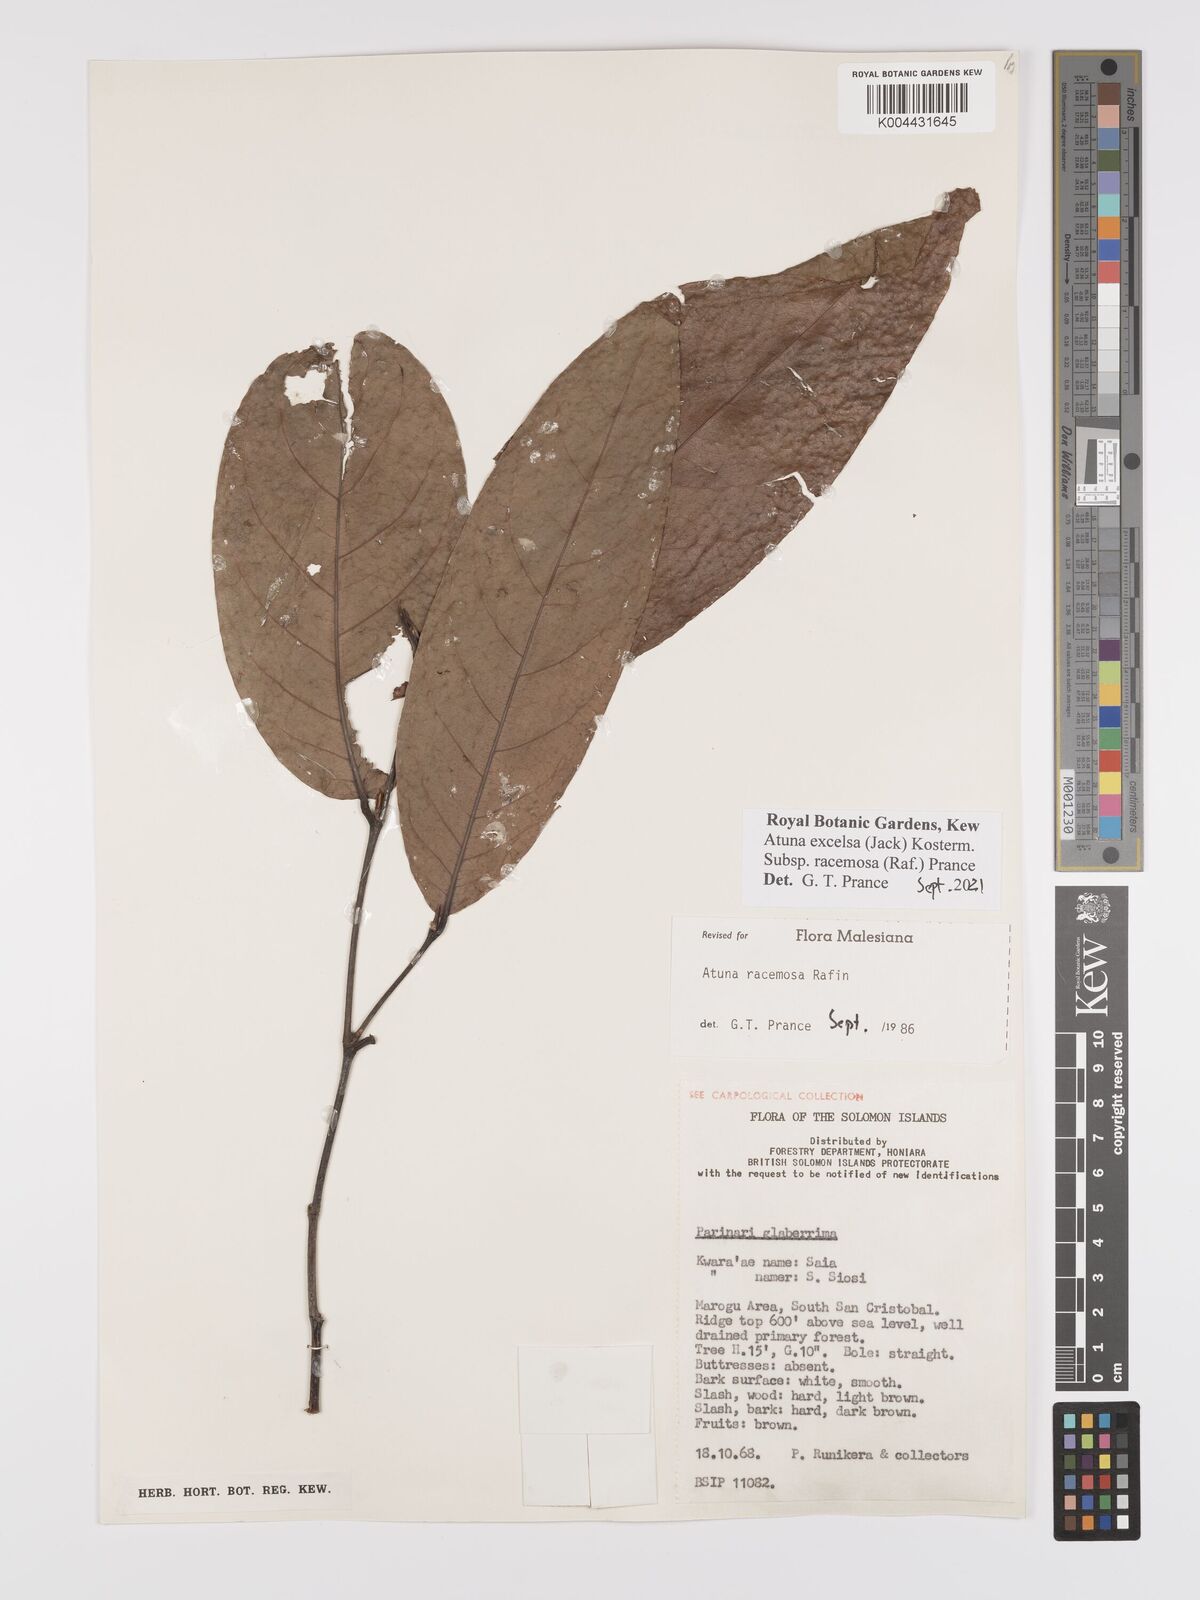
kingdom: Plantae
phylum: Tracheophyta
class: Magnoliopsida
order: Malpighiales
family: Chrysobalanaceae
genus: Atuna
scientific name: Atuna
